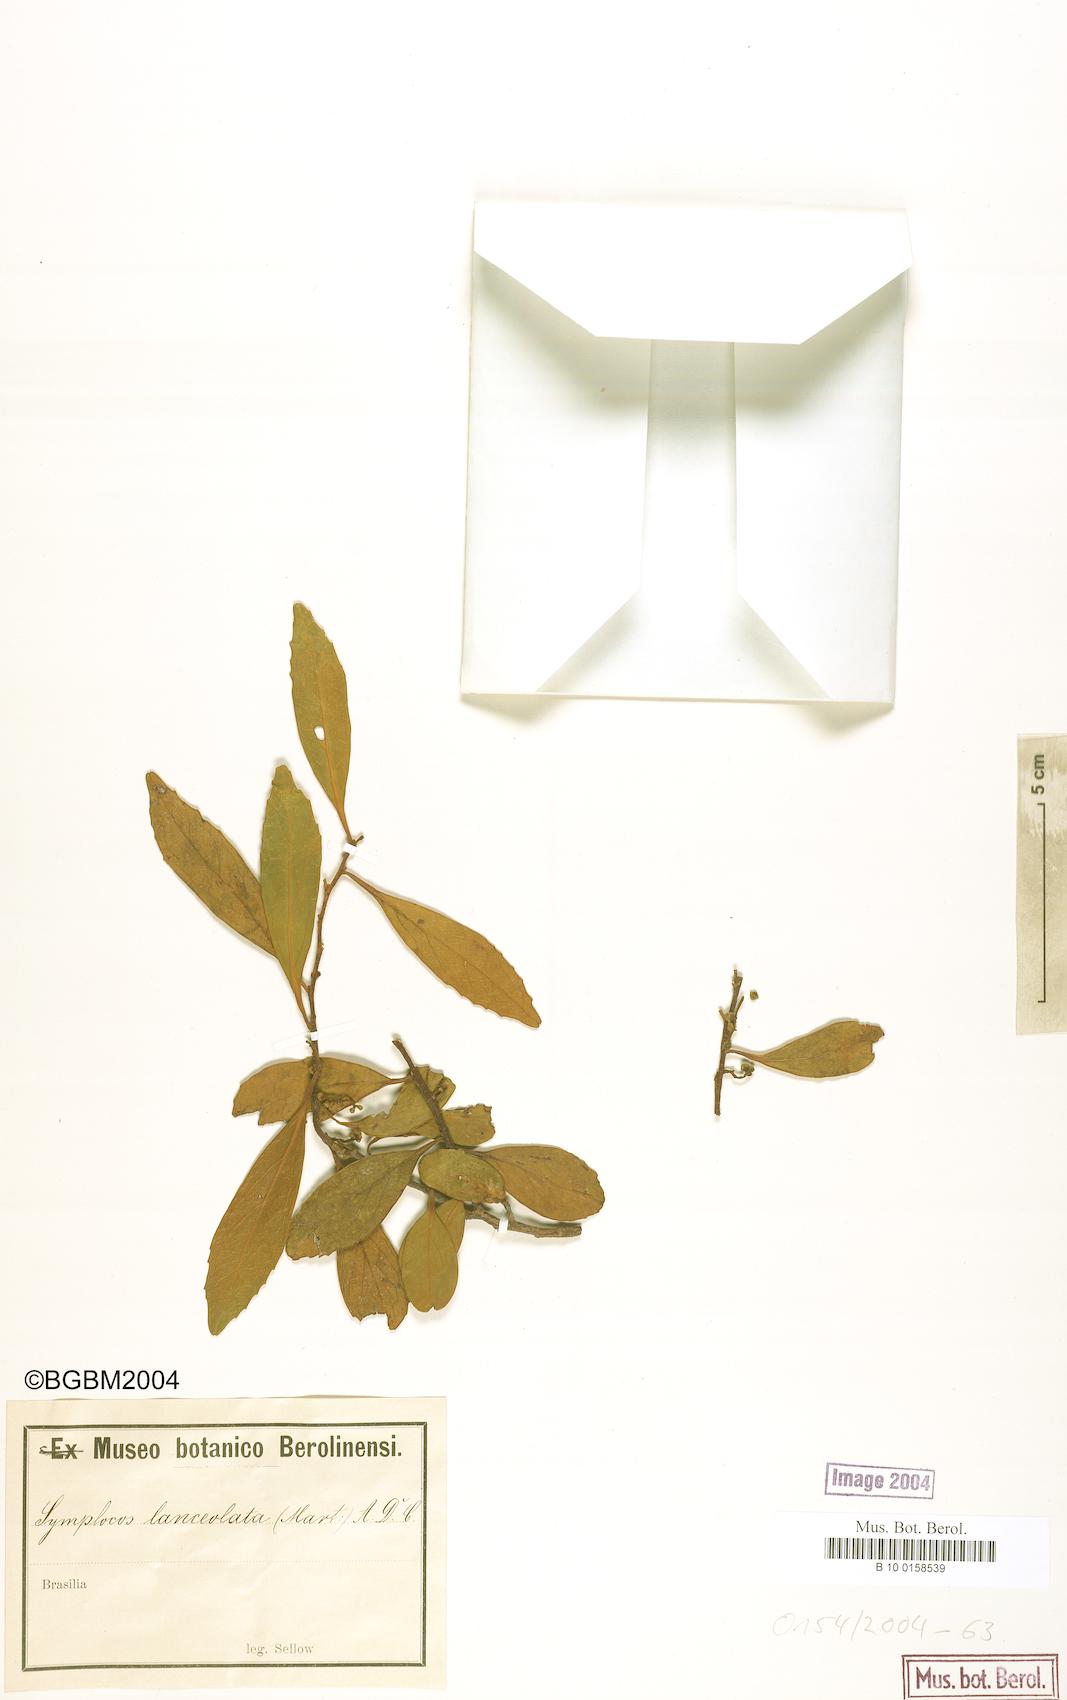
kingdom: Plantae
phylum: Tracheophyta
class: Magnoliopsida
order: Ericales
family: Symplocaceae
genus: Symplocos
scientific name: Symplocos oblongifolia
